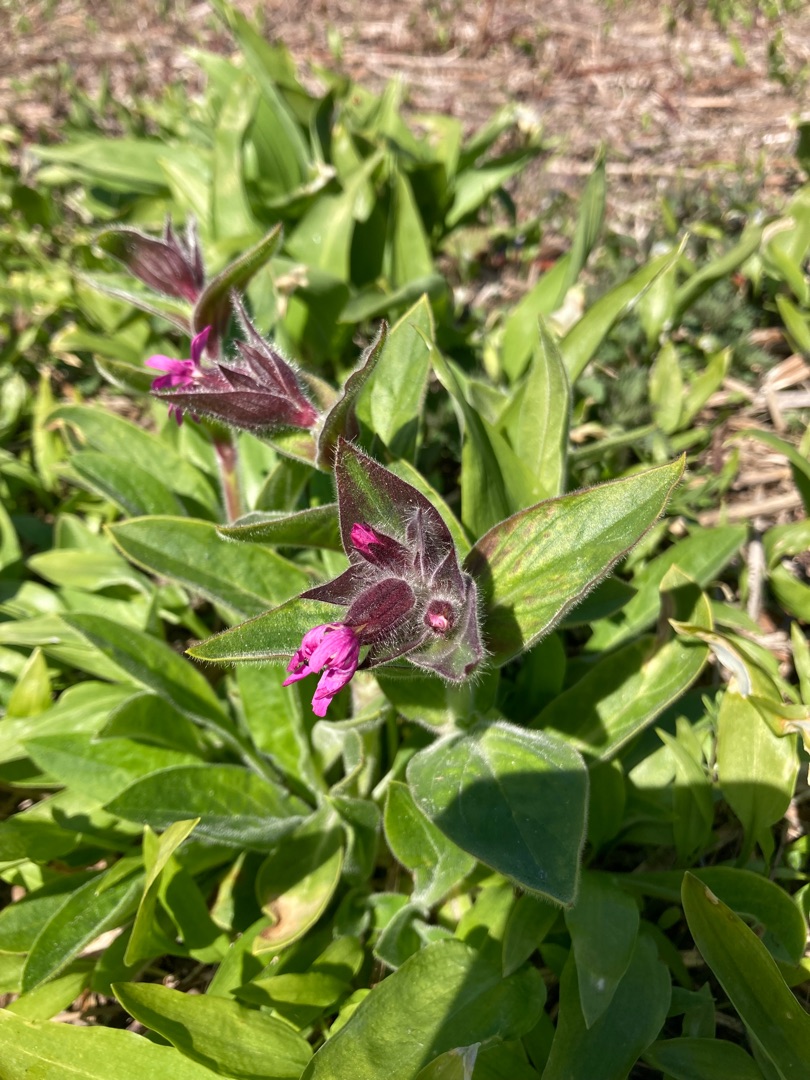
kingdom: Plantae
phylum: Tracheophyta
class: Magnoliopsida
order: Caryophyllales
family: Caryophyllaceae
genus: Silene
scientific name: Silene dioica
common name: Dagpragtstjerne
